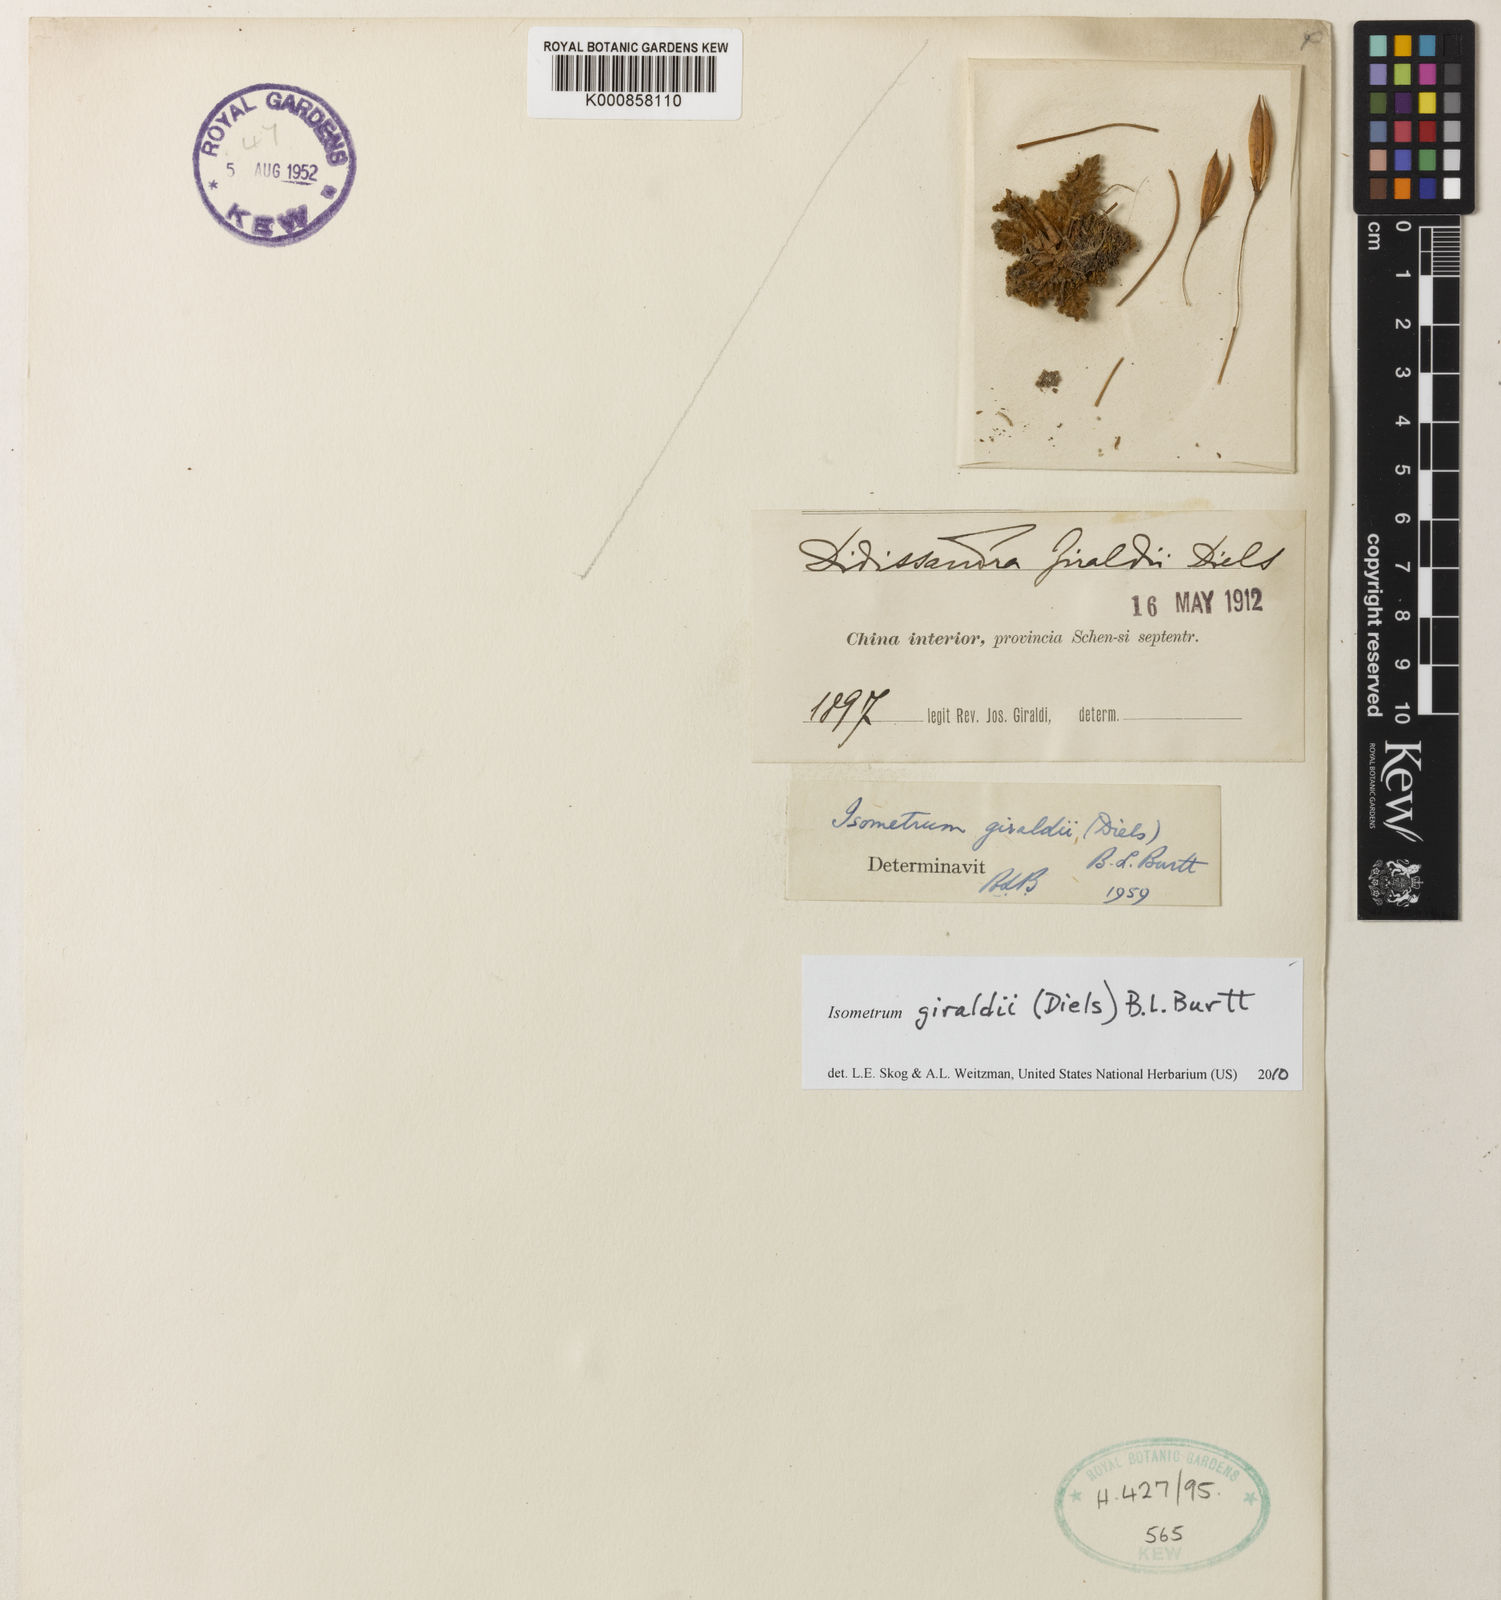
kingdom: Plantae
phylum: Tracheophyta
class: Magnoliopsida
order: Lamiales
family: Gesneriaceae
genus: Oreocharis
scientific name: Oreocharis
